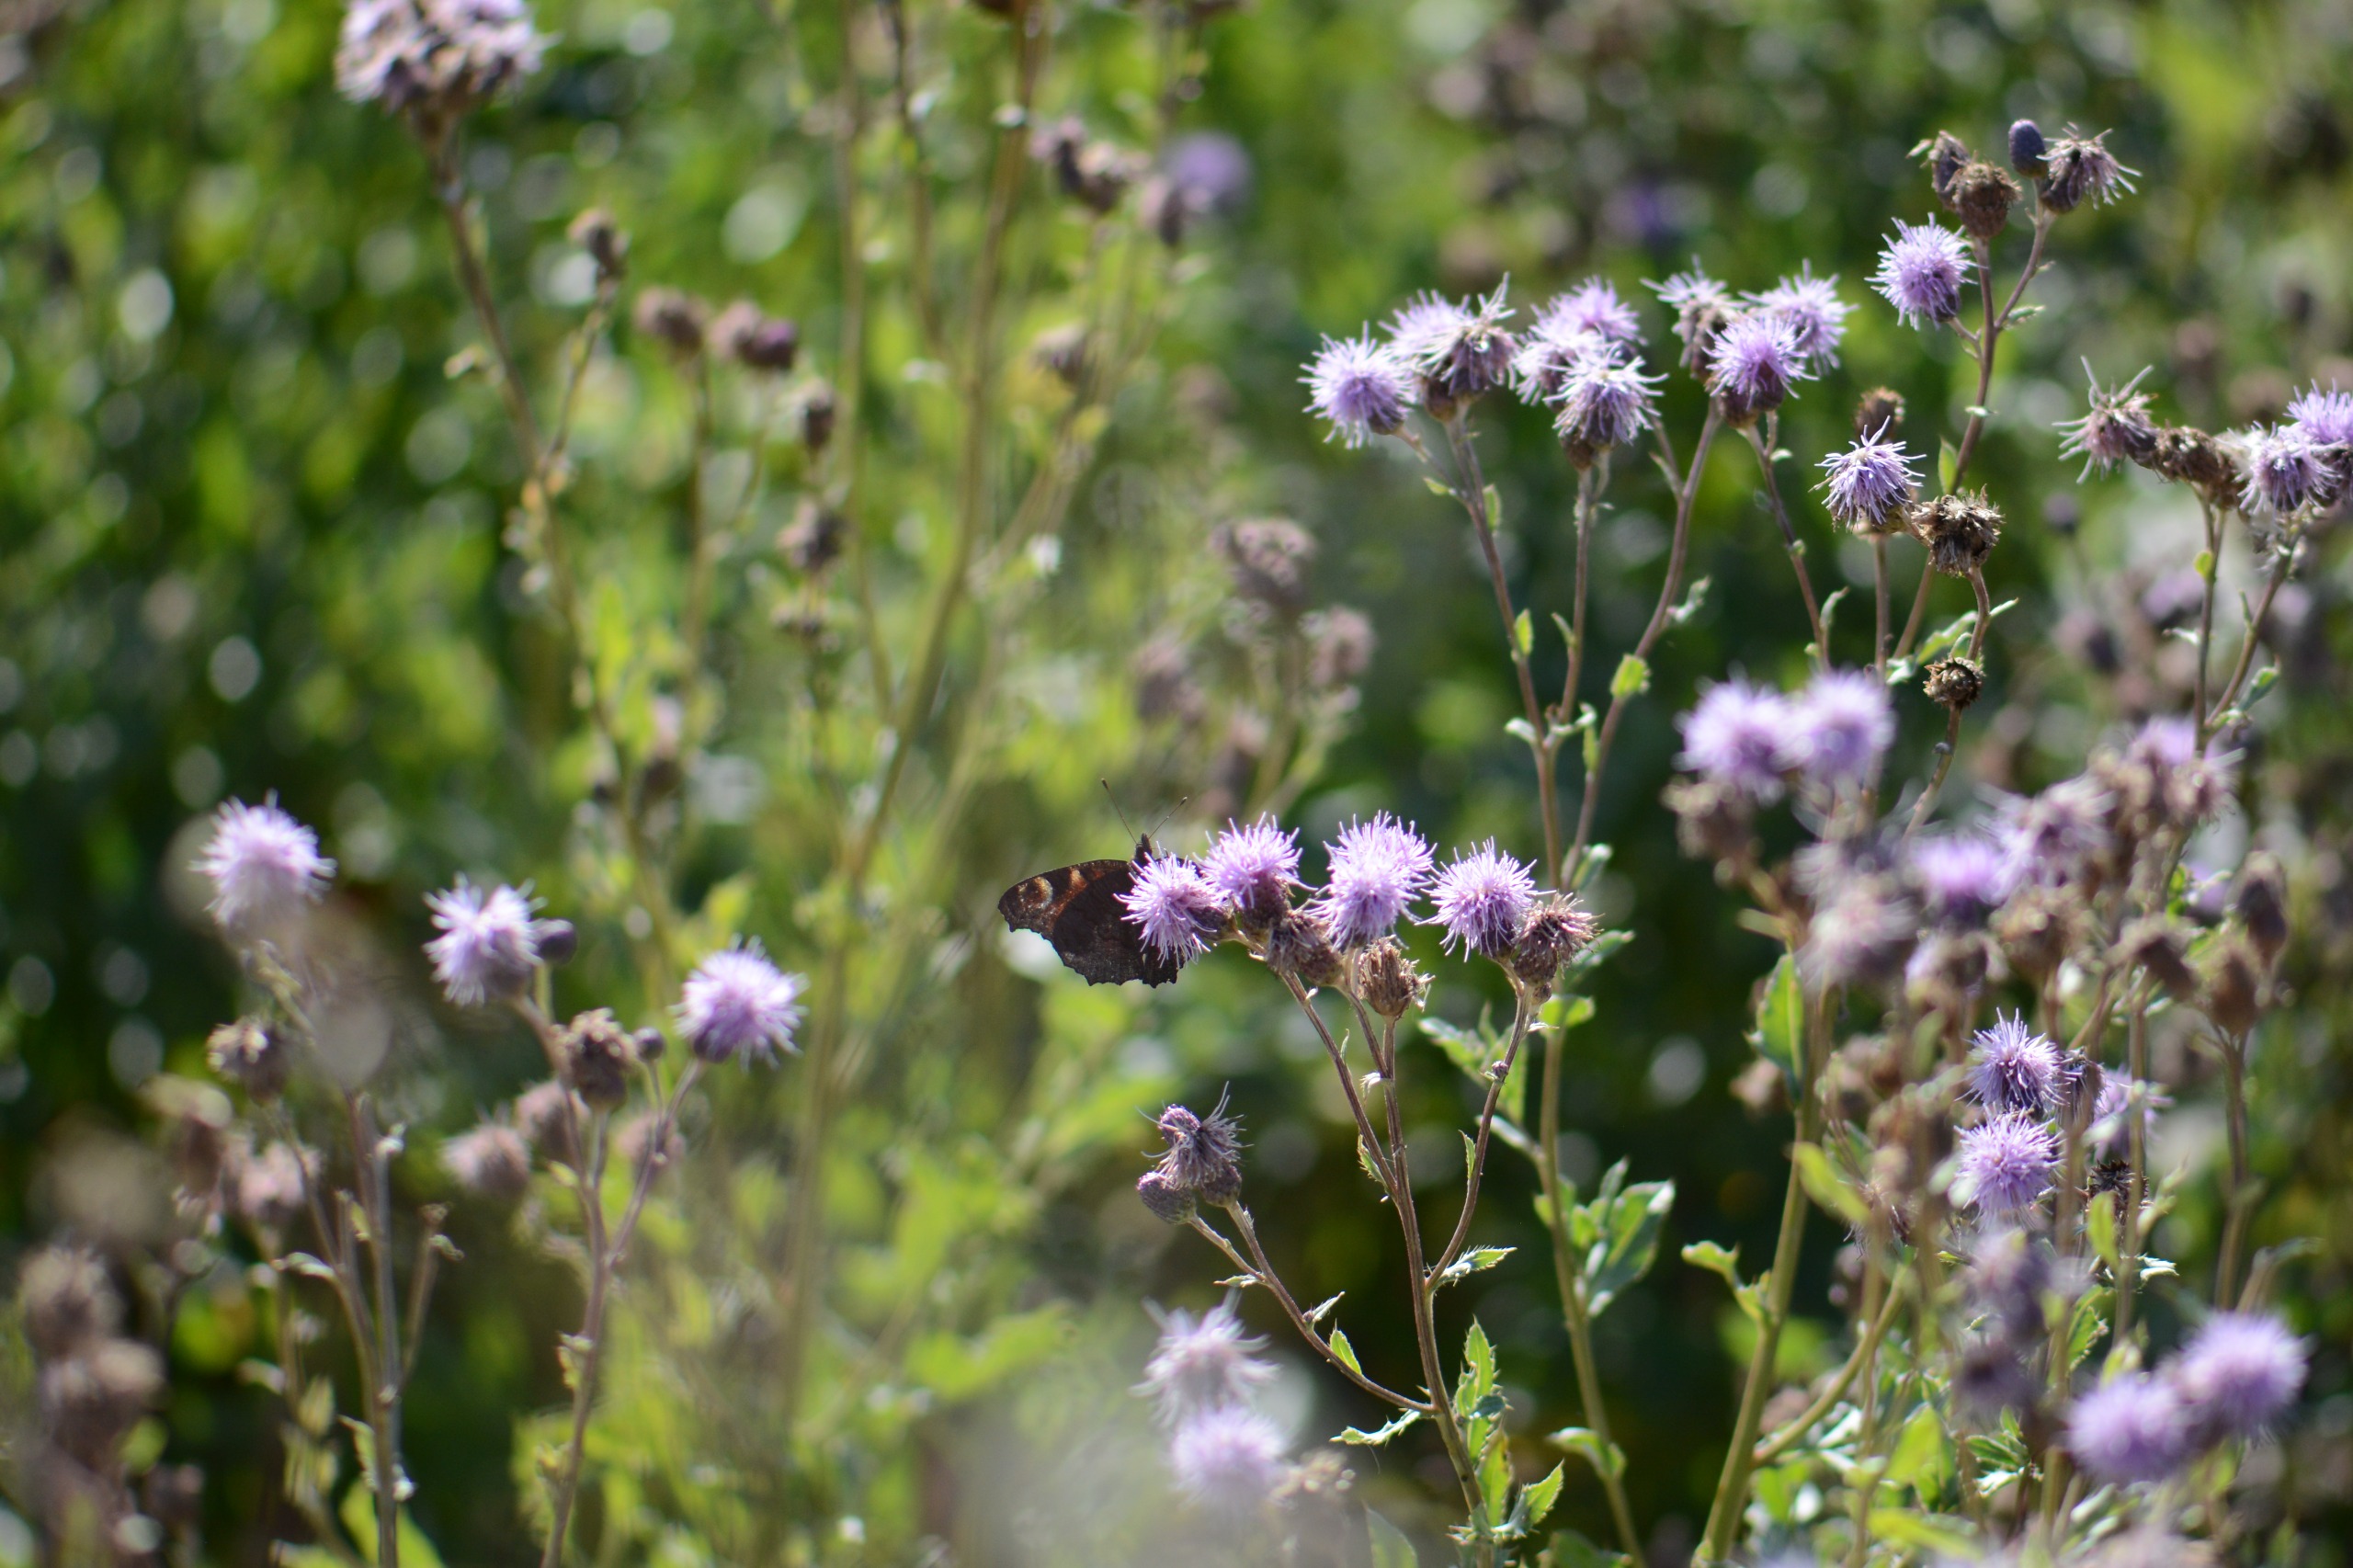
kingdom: Animalia
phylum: Arthropoda
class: Insecta
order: Lepidoptera
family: Nymphalidae
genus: Aglais
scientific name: Aglais io
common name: Dagpåfugleøje
